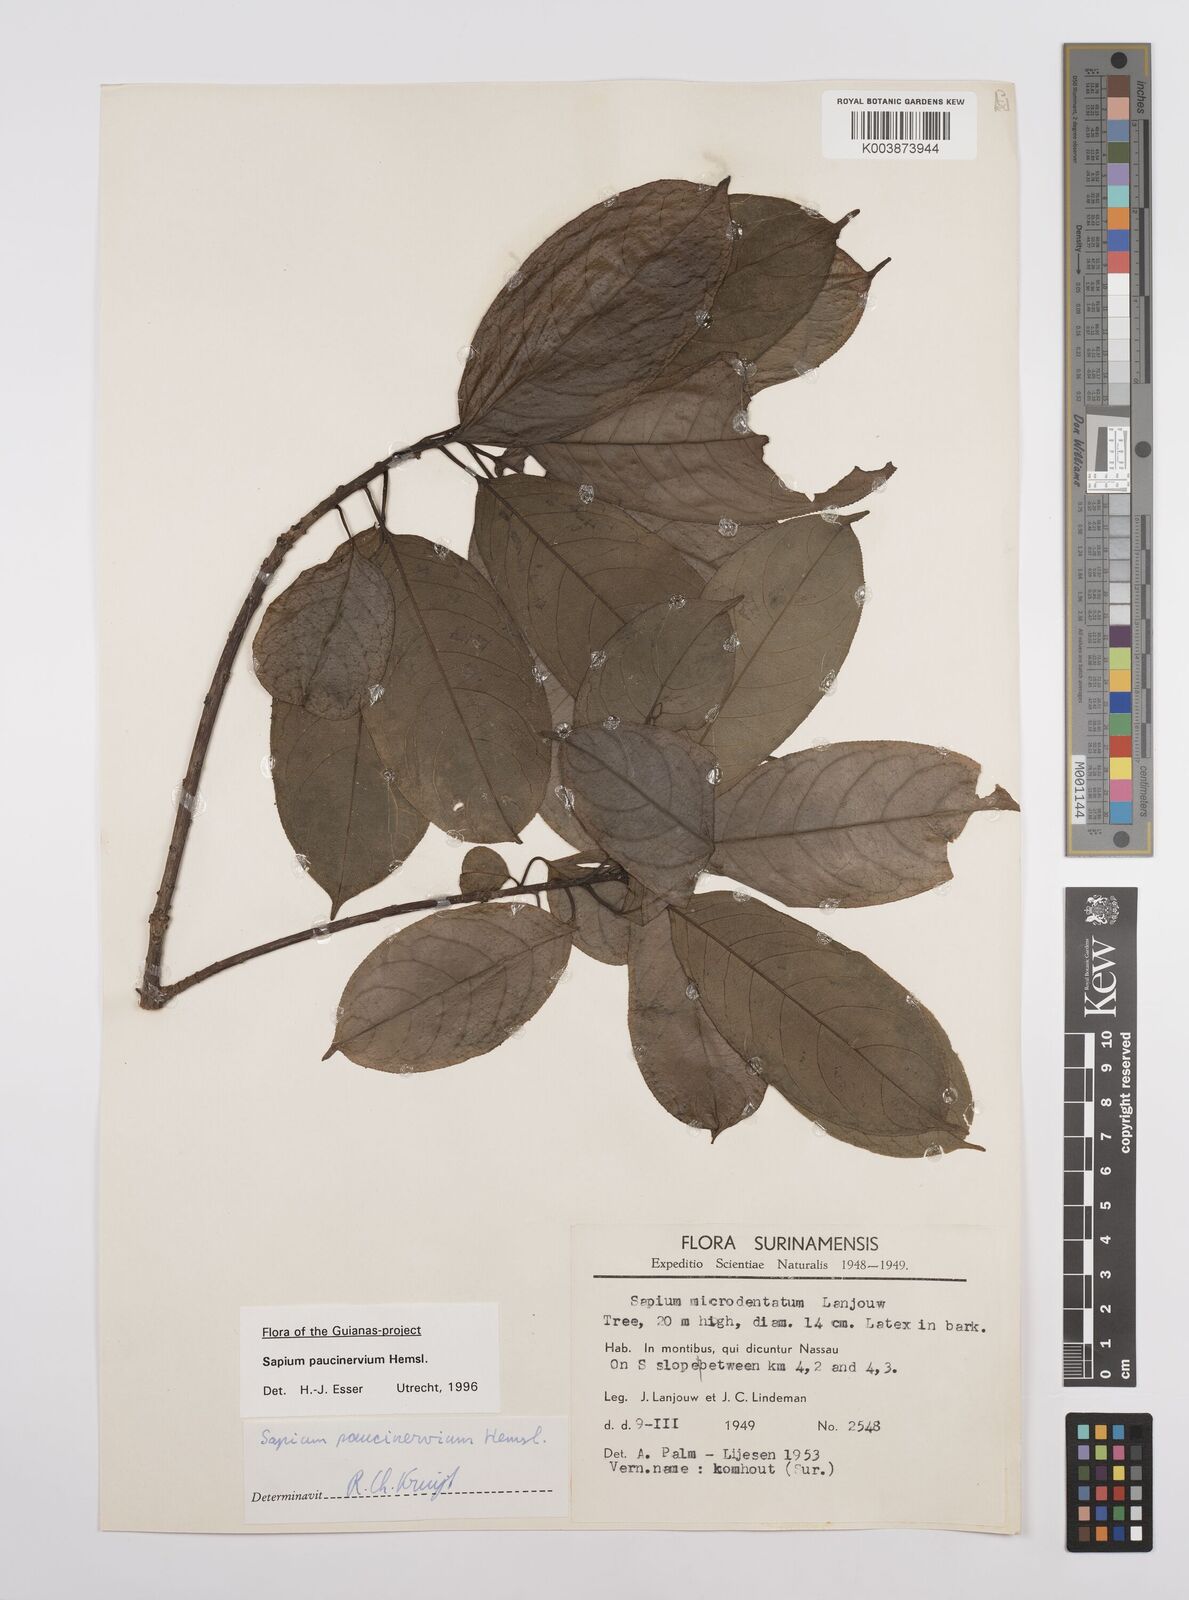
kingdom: Plantae
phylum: Tracheophyta
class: Magnoliopsida
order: Malpighiales
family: Euphorbiaceae
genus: Sapium
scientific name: Sapium paucinervium
